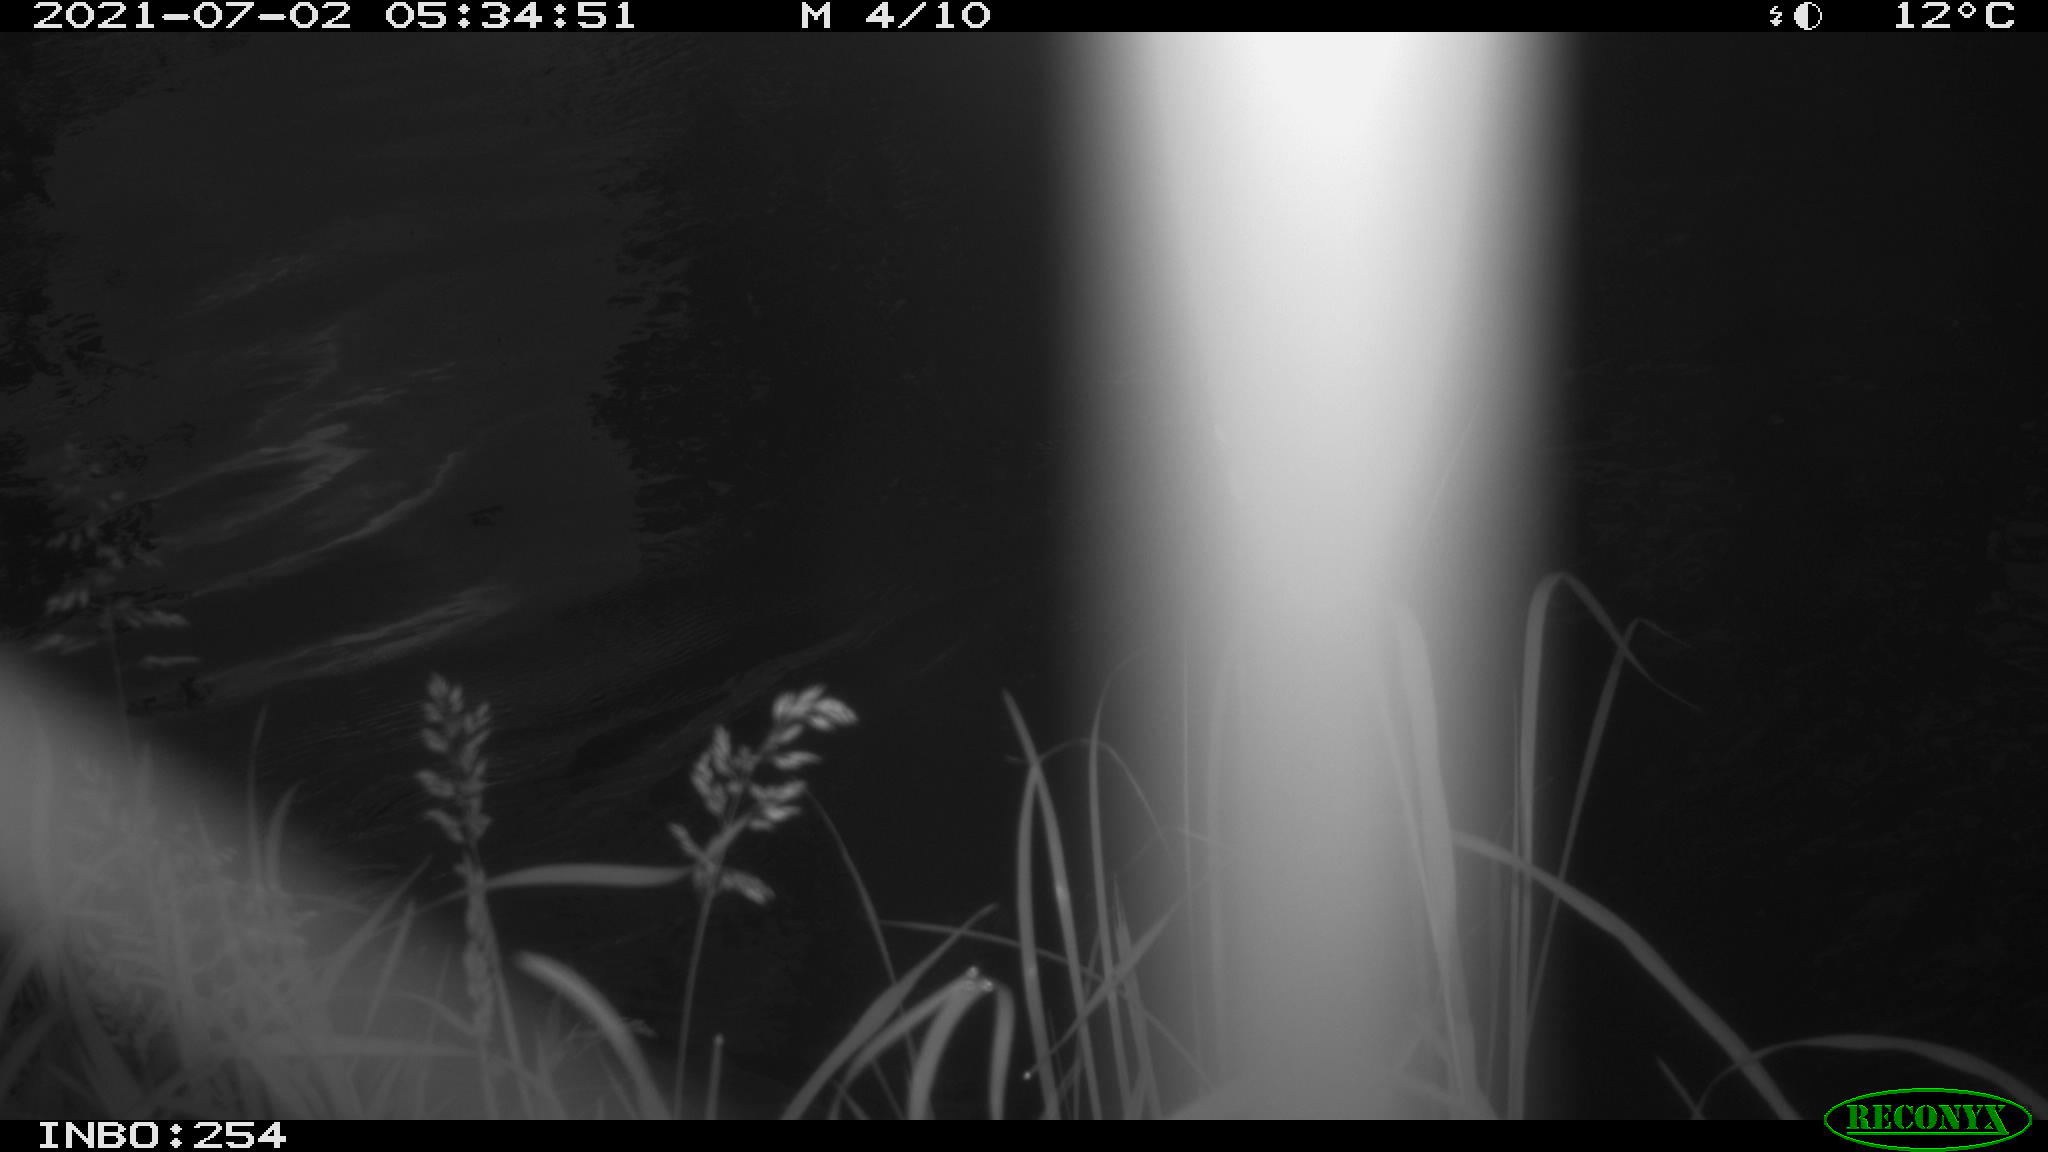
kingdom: Animalia
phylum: Chordata
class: Aves
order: Anseriformes
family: Anatidae
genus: Anas
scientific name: Anas platyrhynchos
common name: Mallard
